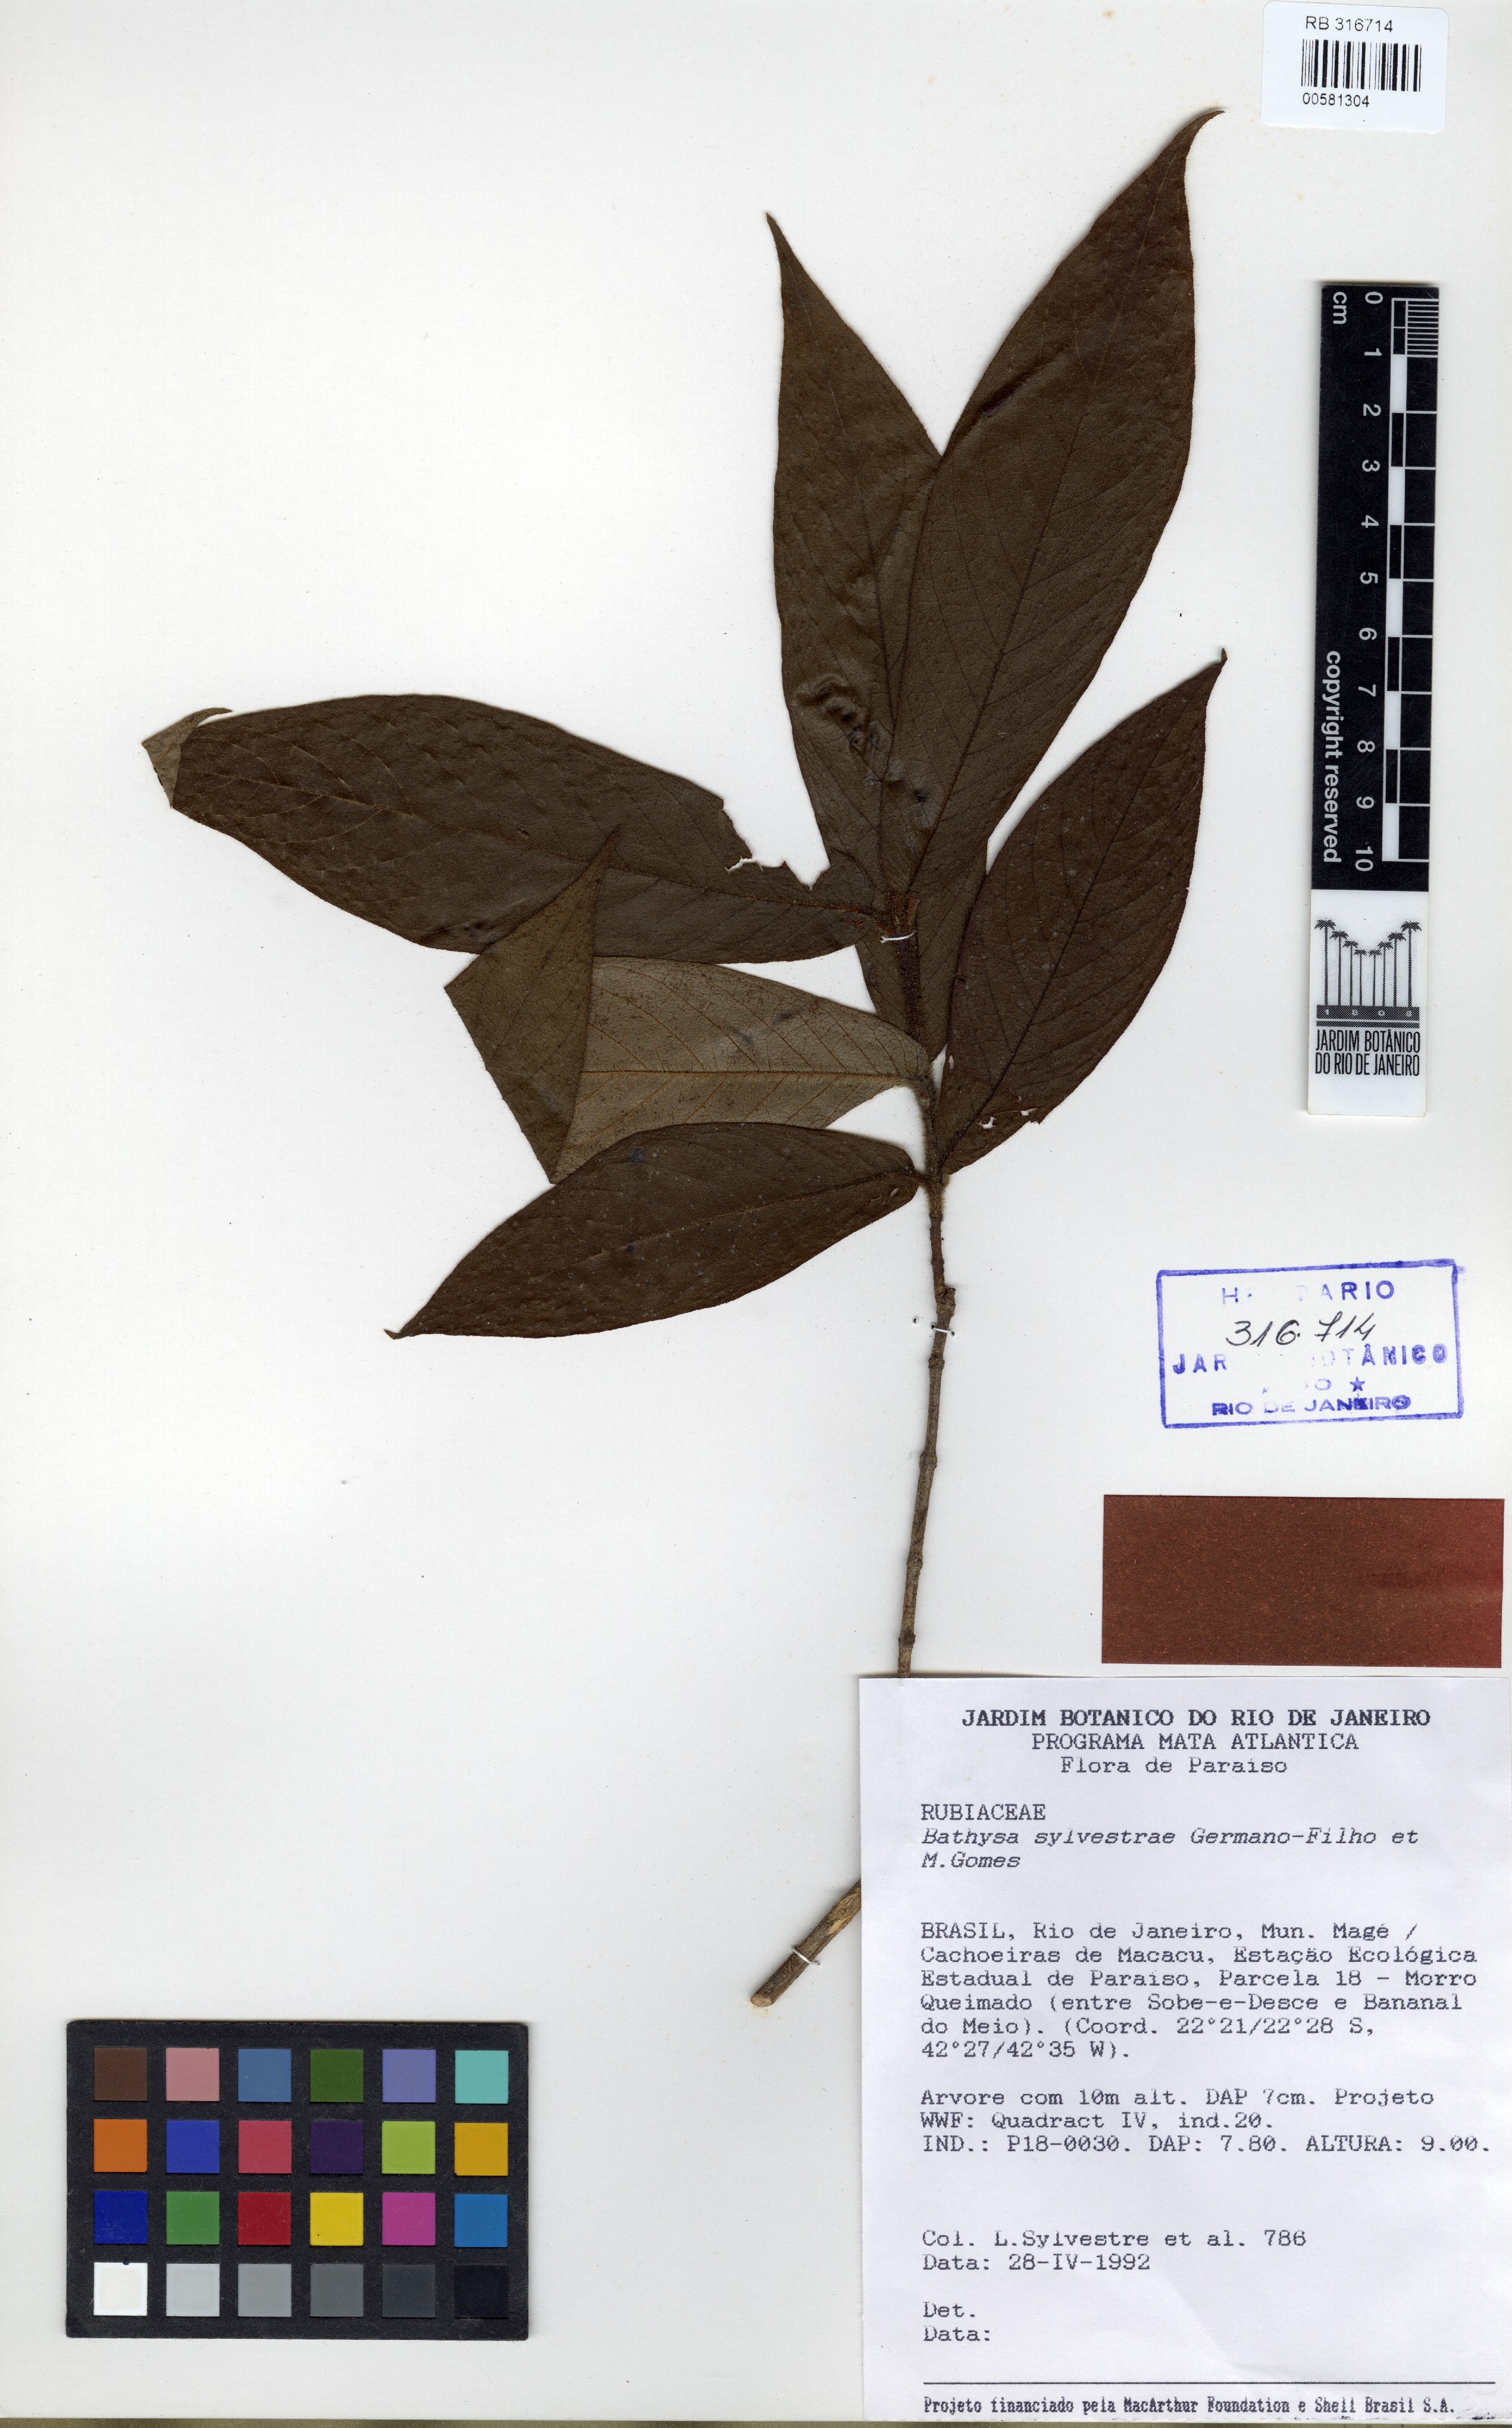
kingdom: Plantae
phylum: Tracheophyta
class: Magnoliopsida
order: Gentianales
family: Rubiaceae
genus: Bathysa
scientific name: Bathysa sylvestrae
